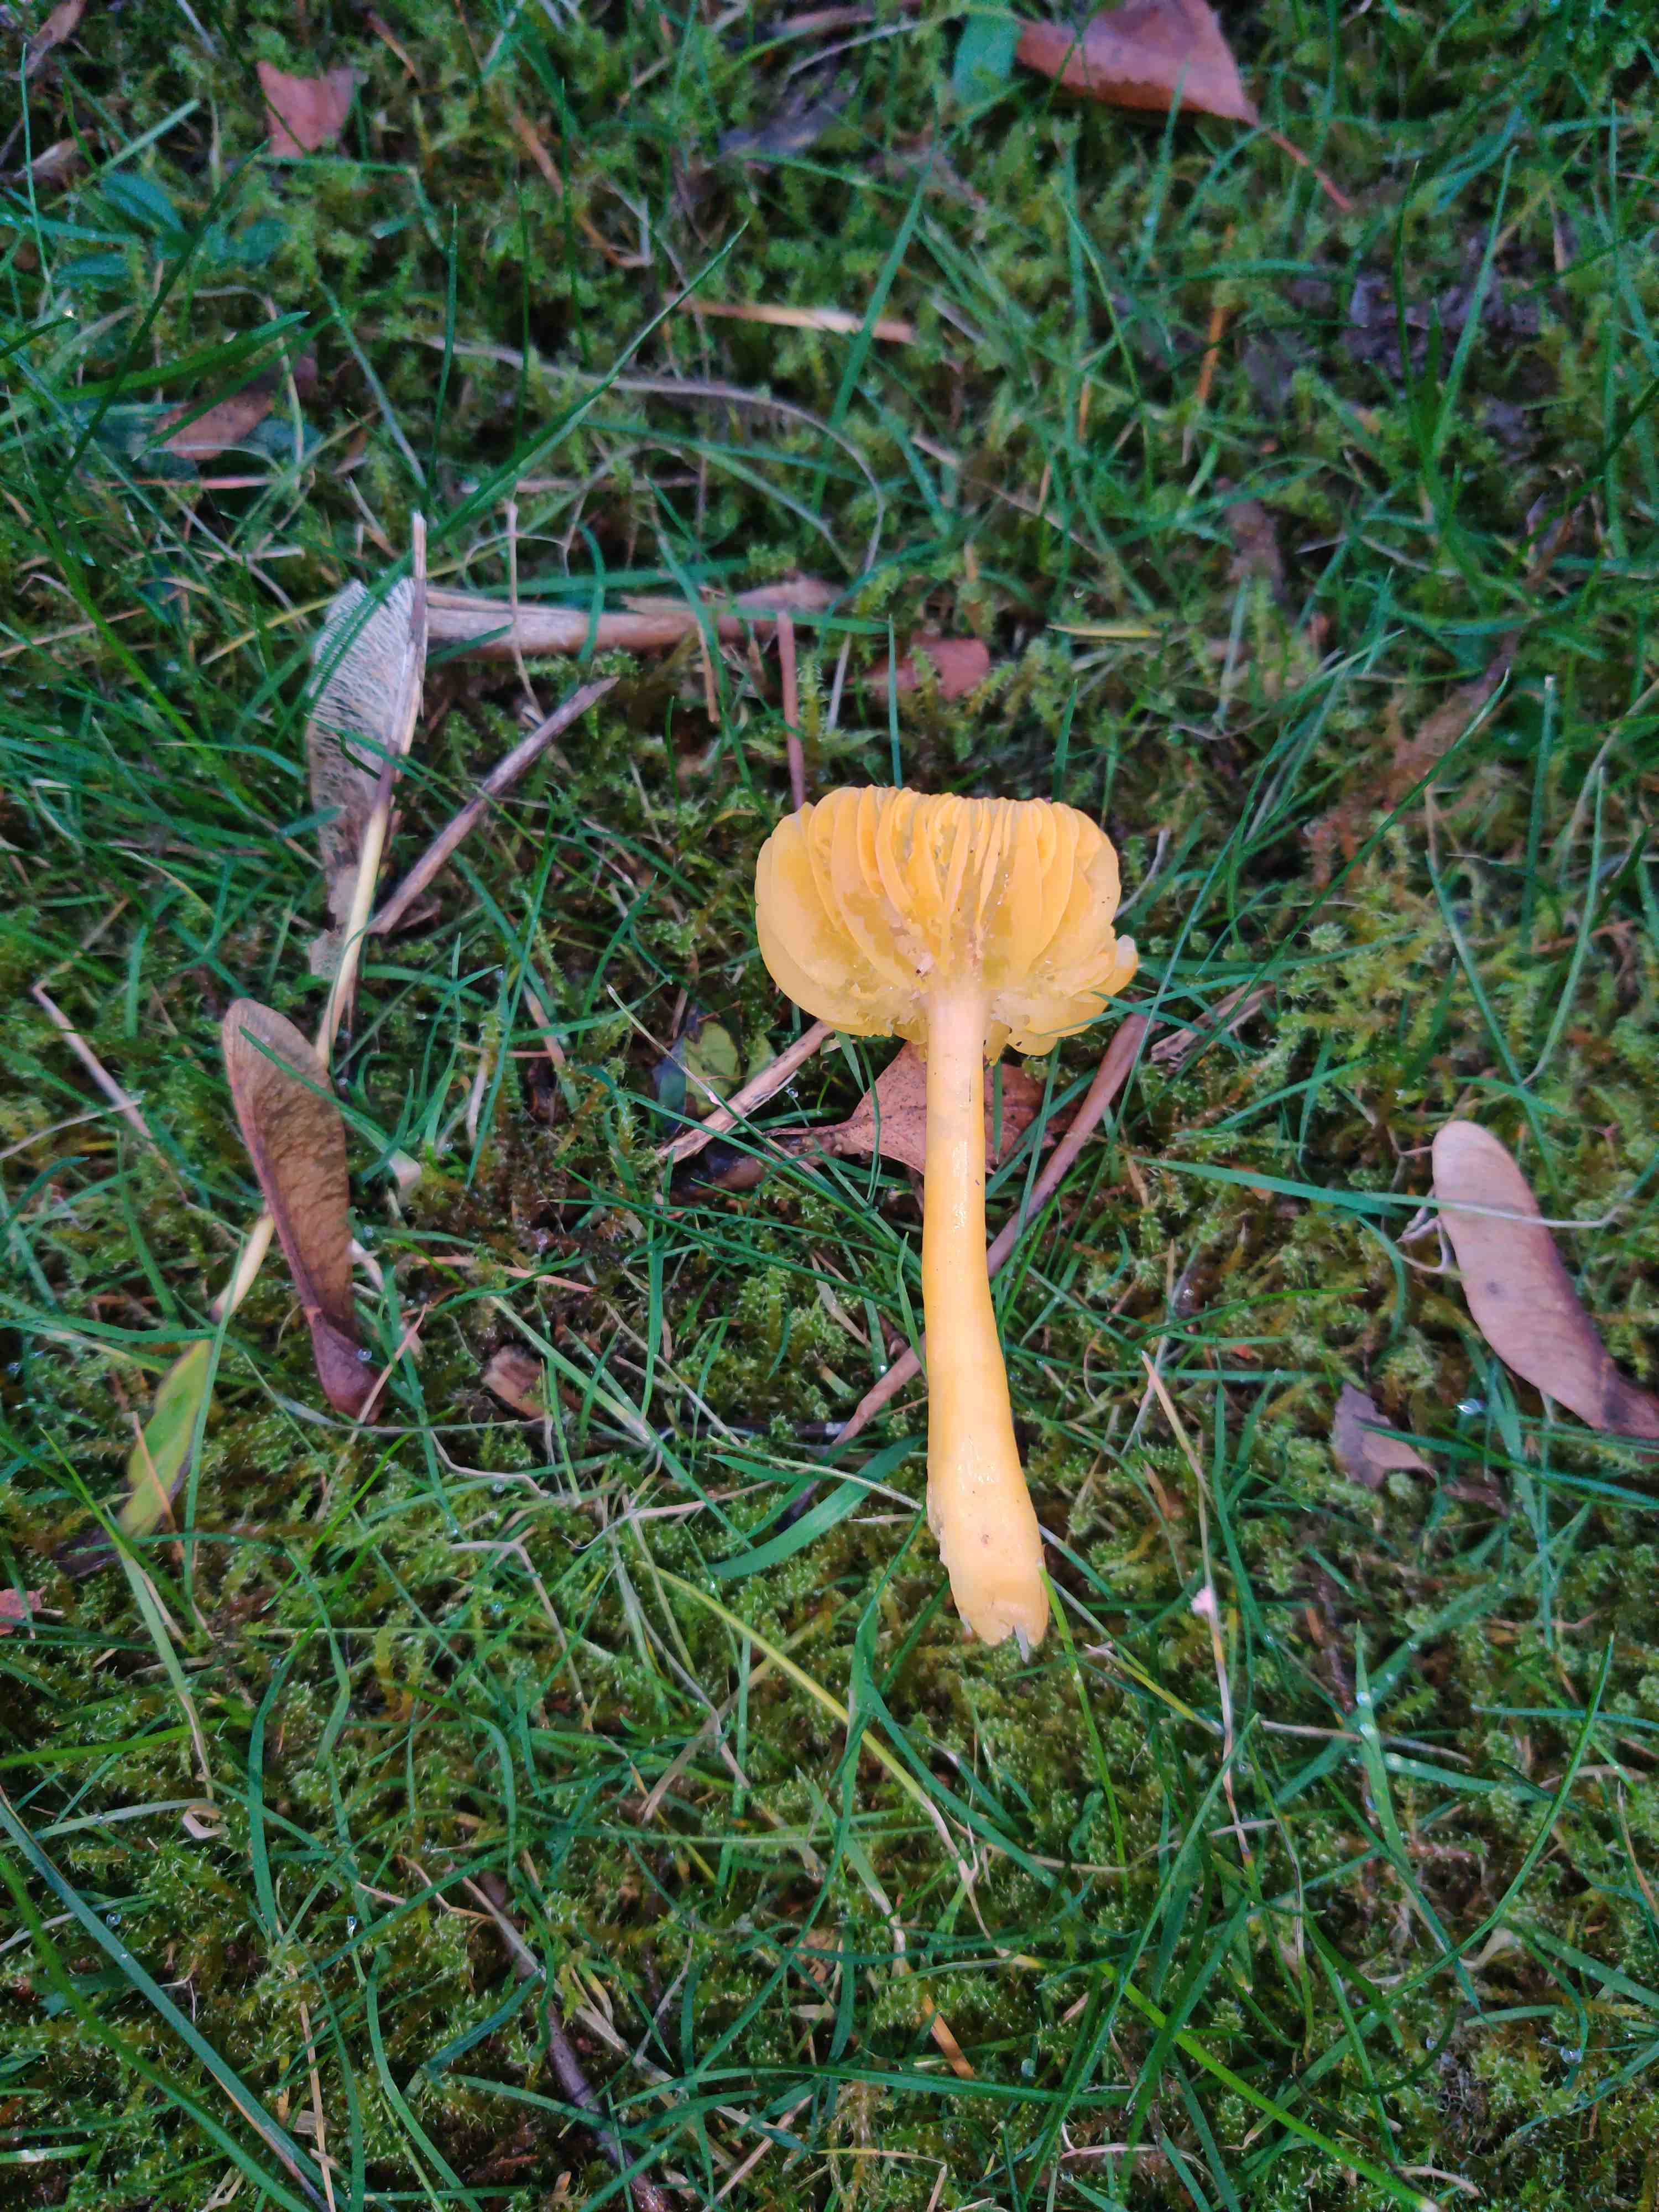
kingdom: Fungi
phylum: Basidiomycota
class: Agaricomycetes
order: Agaricales
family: Hygrophoraceae
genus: Hygrocybe
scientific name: Hygrocybe chlorophana
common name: gul vokshat
